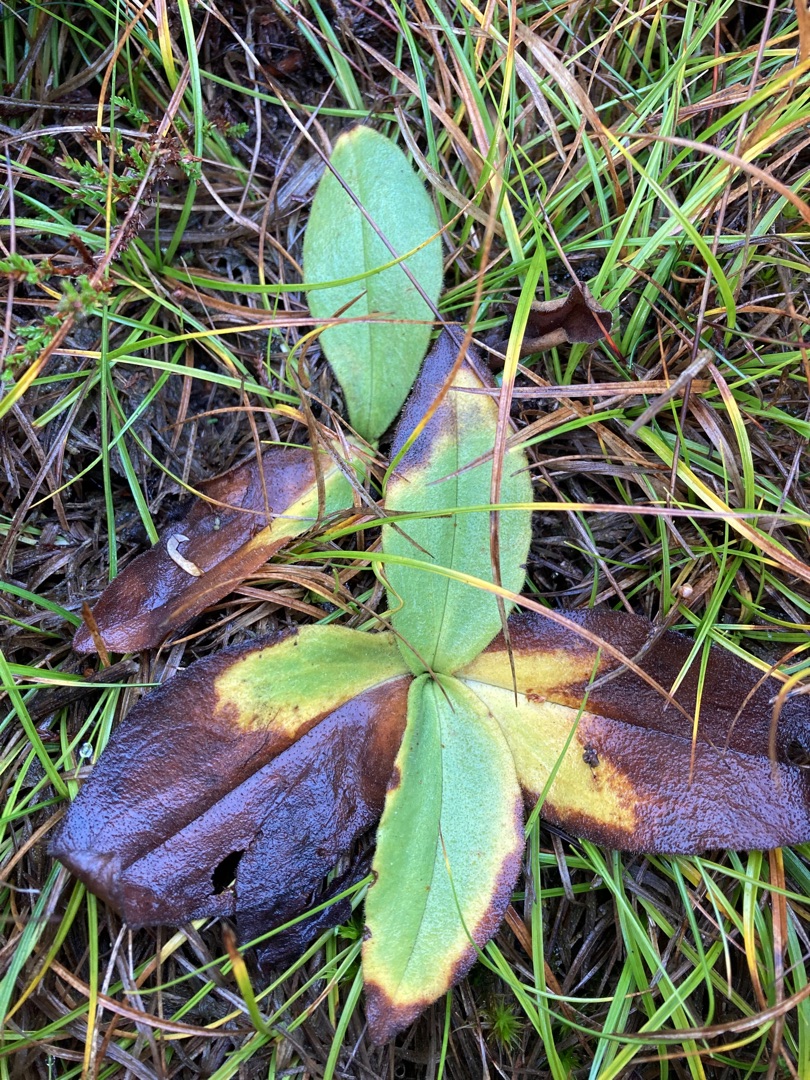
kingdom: Plantae
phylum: Tracheophyta
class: Magnoliopsida
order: Asterales
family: Asteraceae
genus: Arnica
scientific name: Arnica montana
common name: Guldblomme
